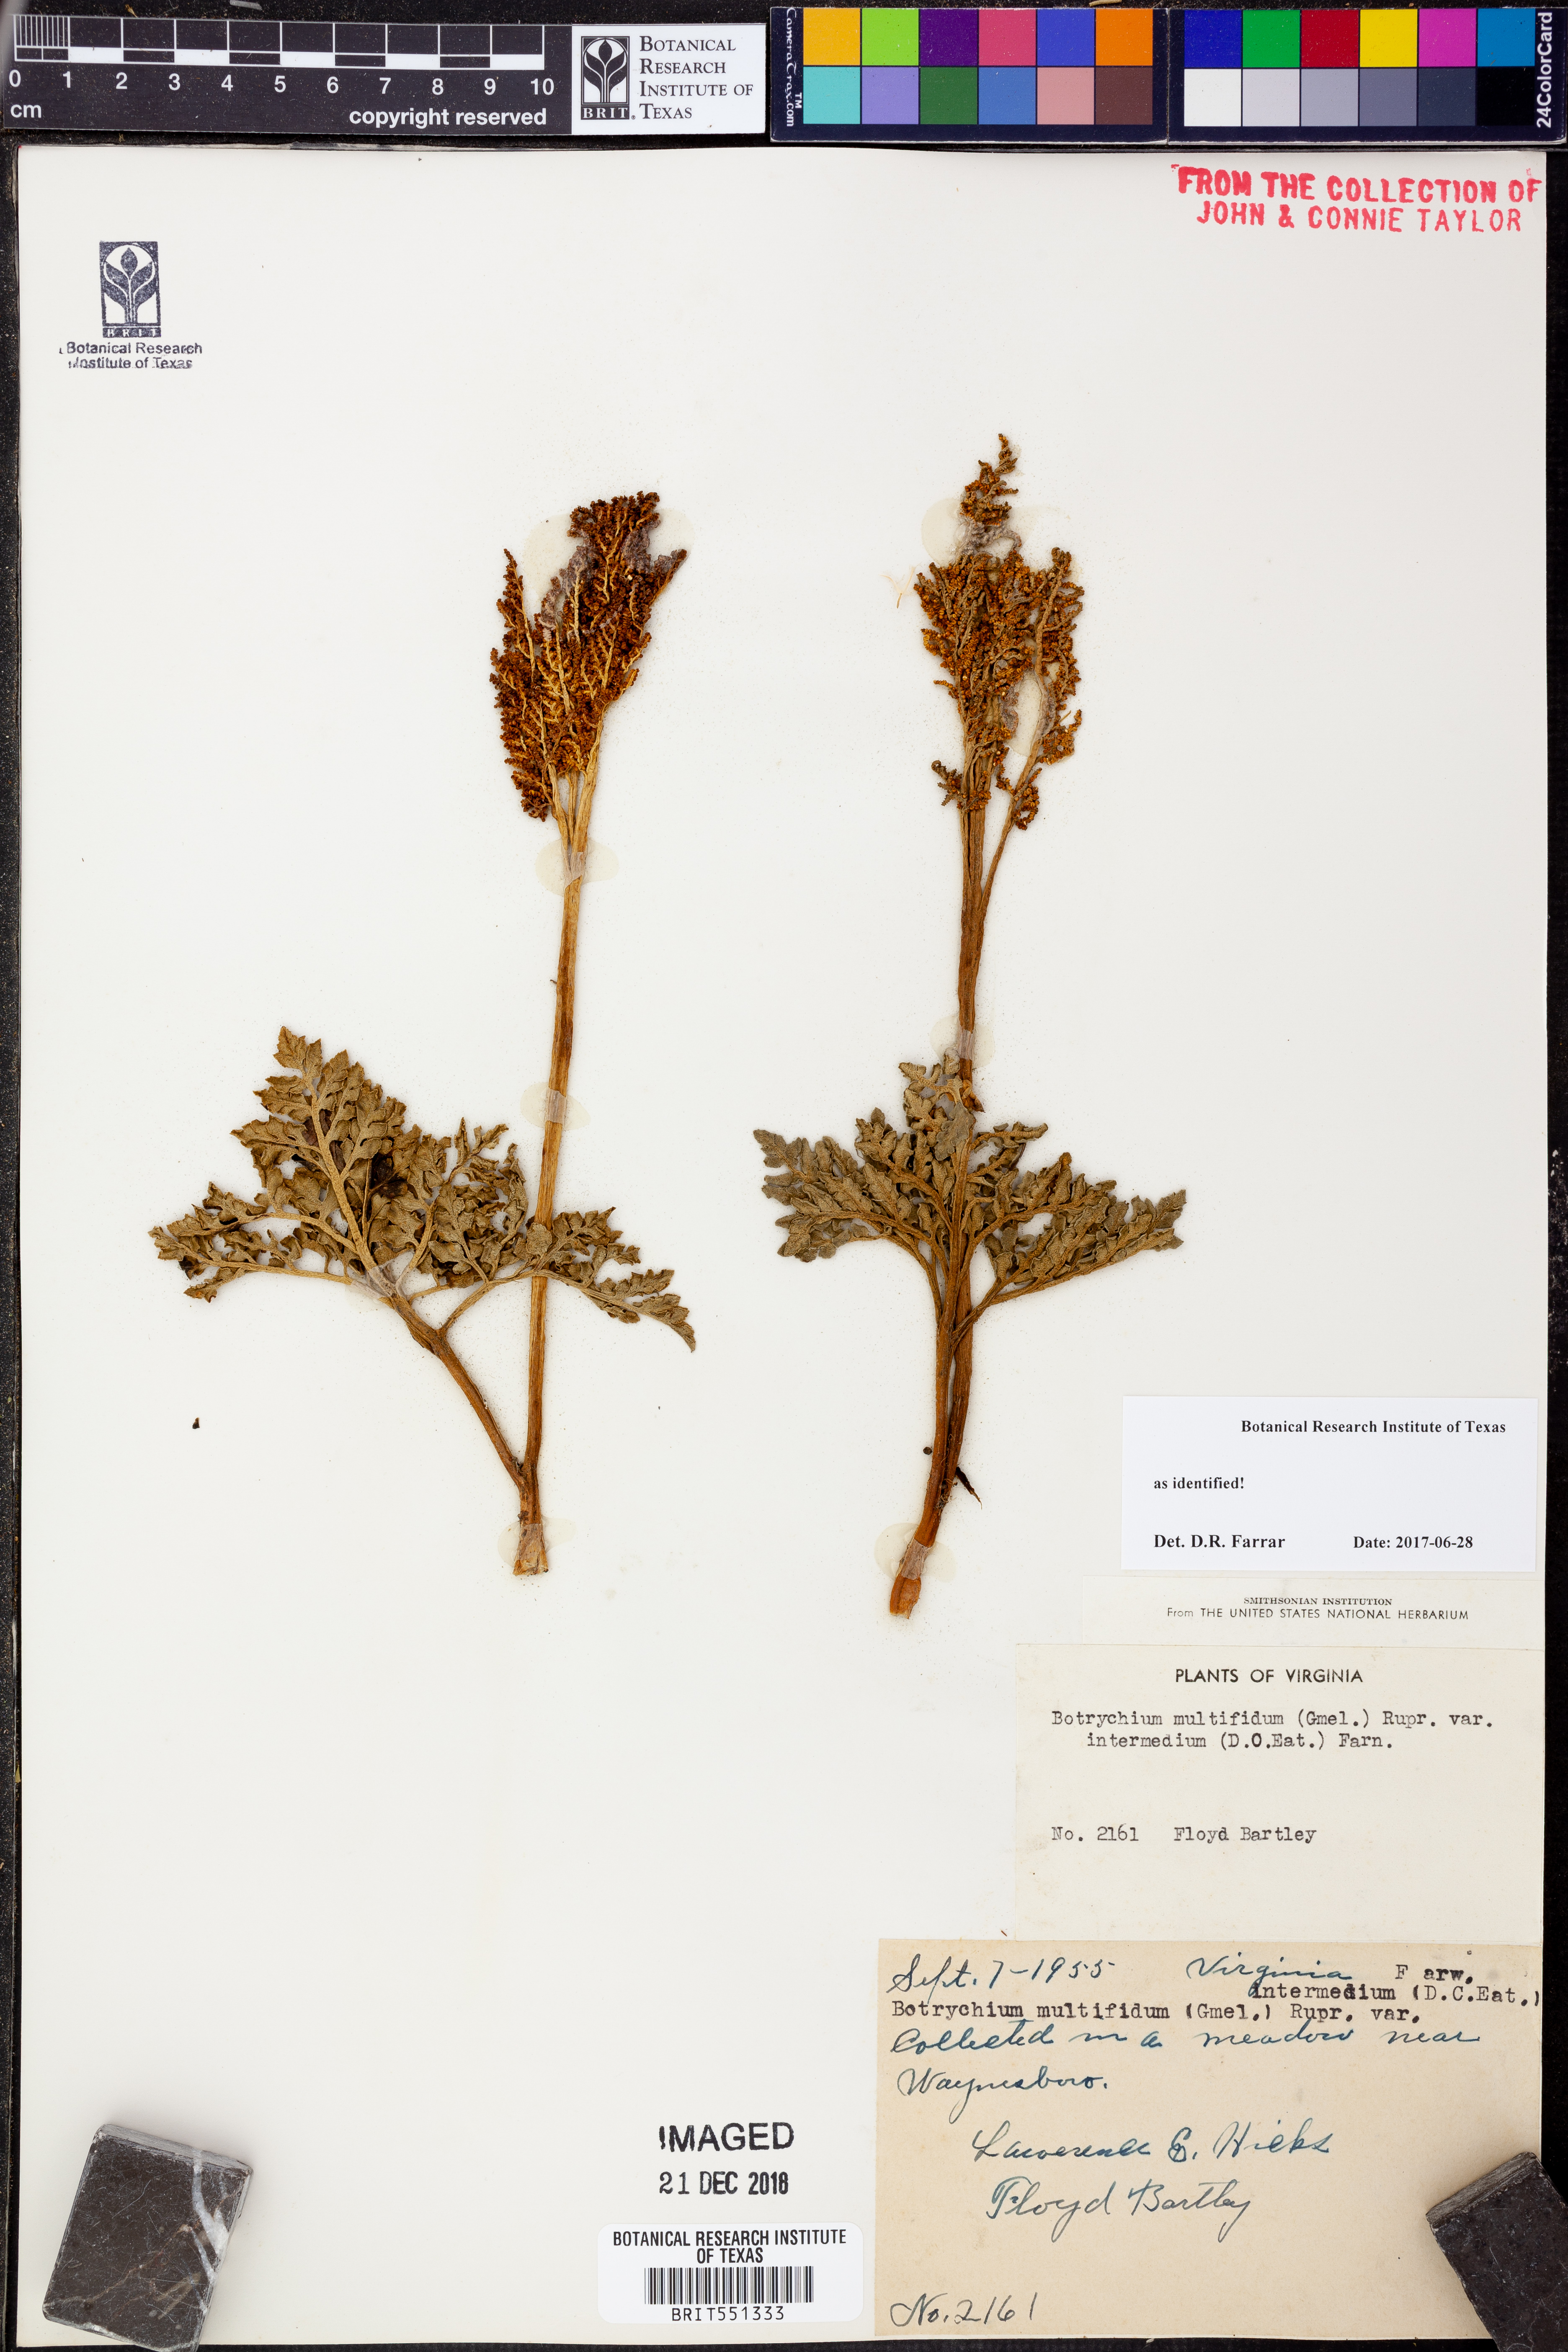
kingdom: Plantae
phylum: Tracheophyta
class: Polypodiopsida
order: Ophioglossales
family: Ophioglossaceae
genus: Sceptridium
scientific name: Sceptridium multifidum
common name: Leathery grape fern
